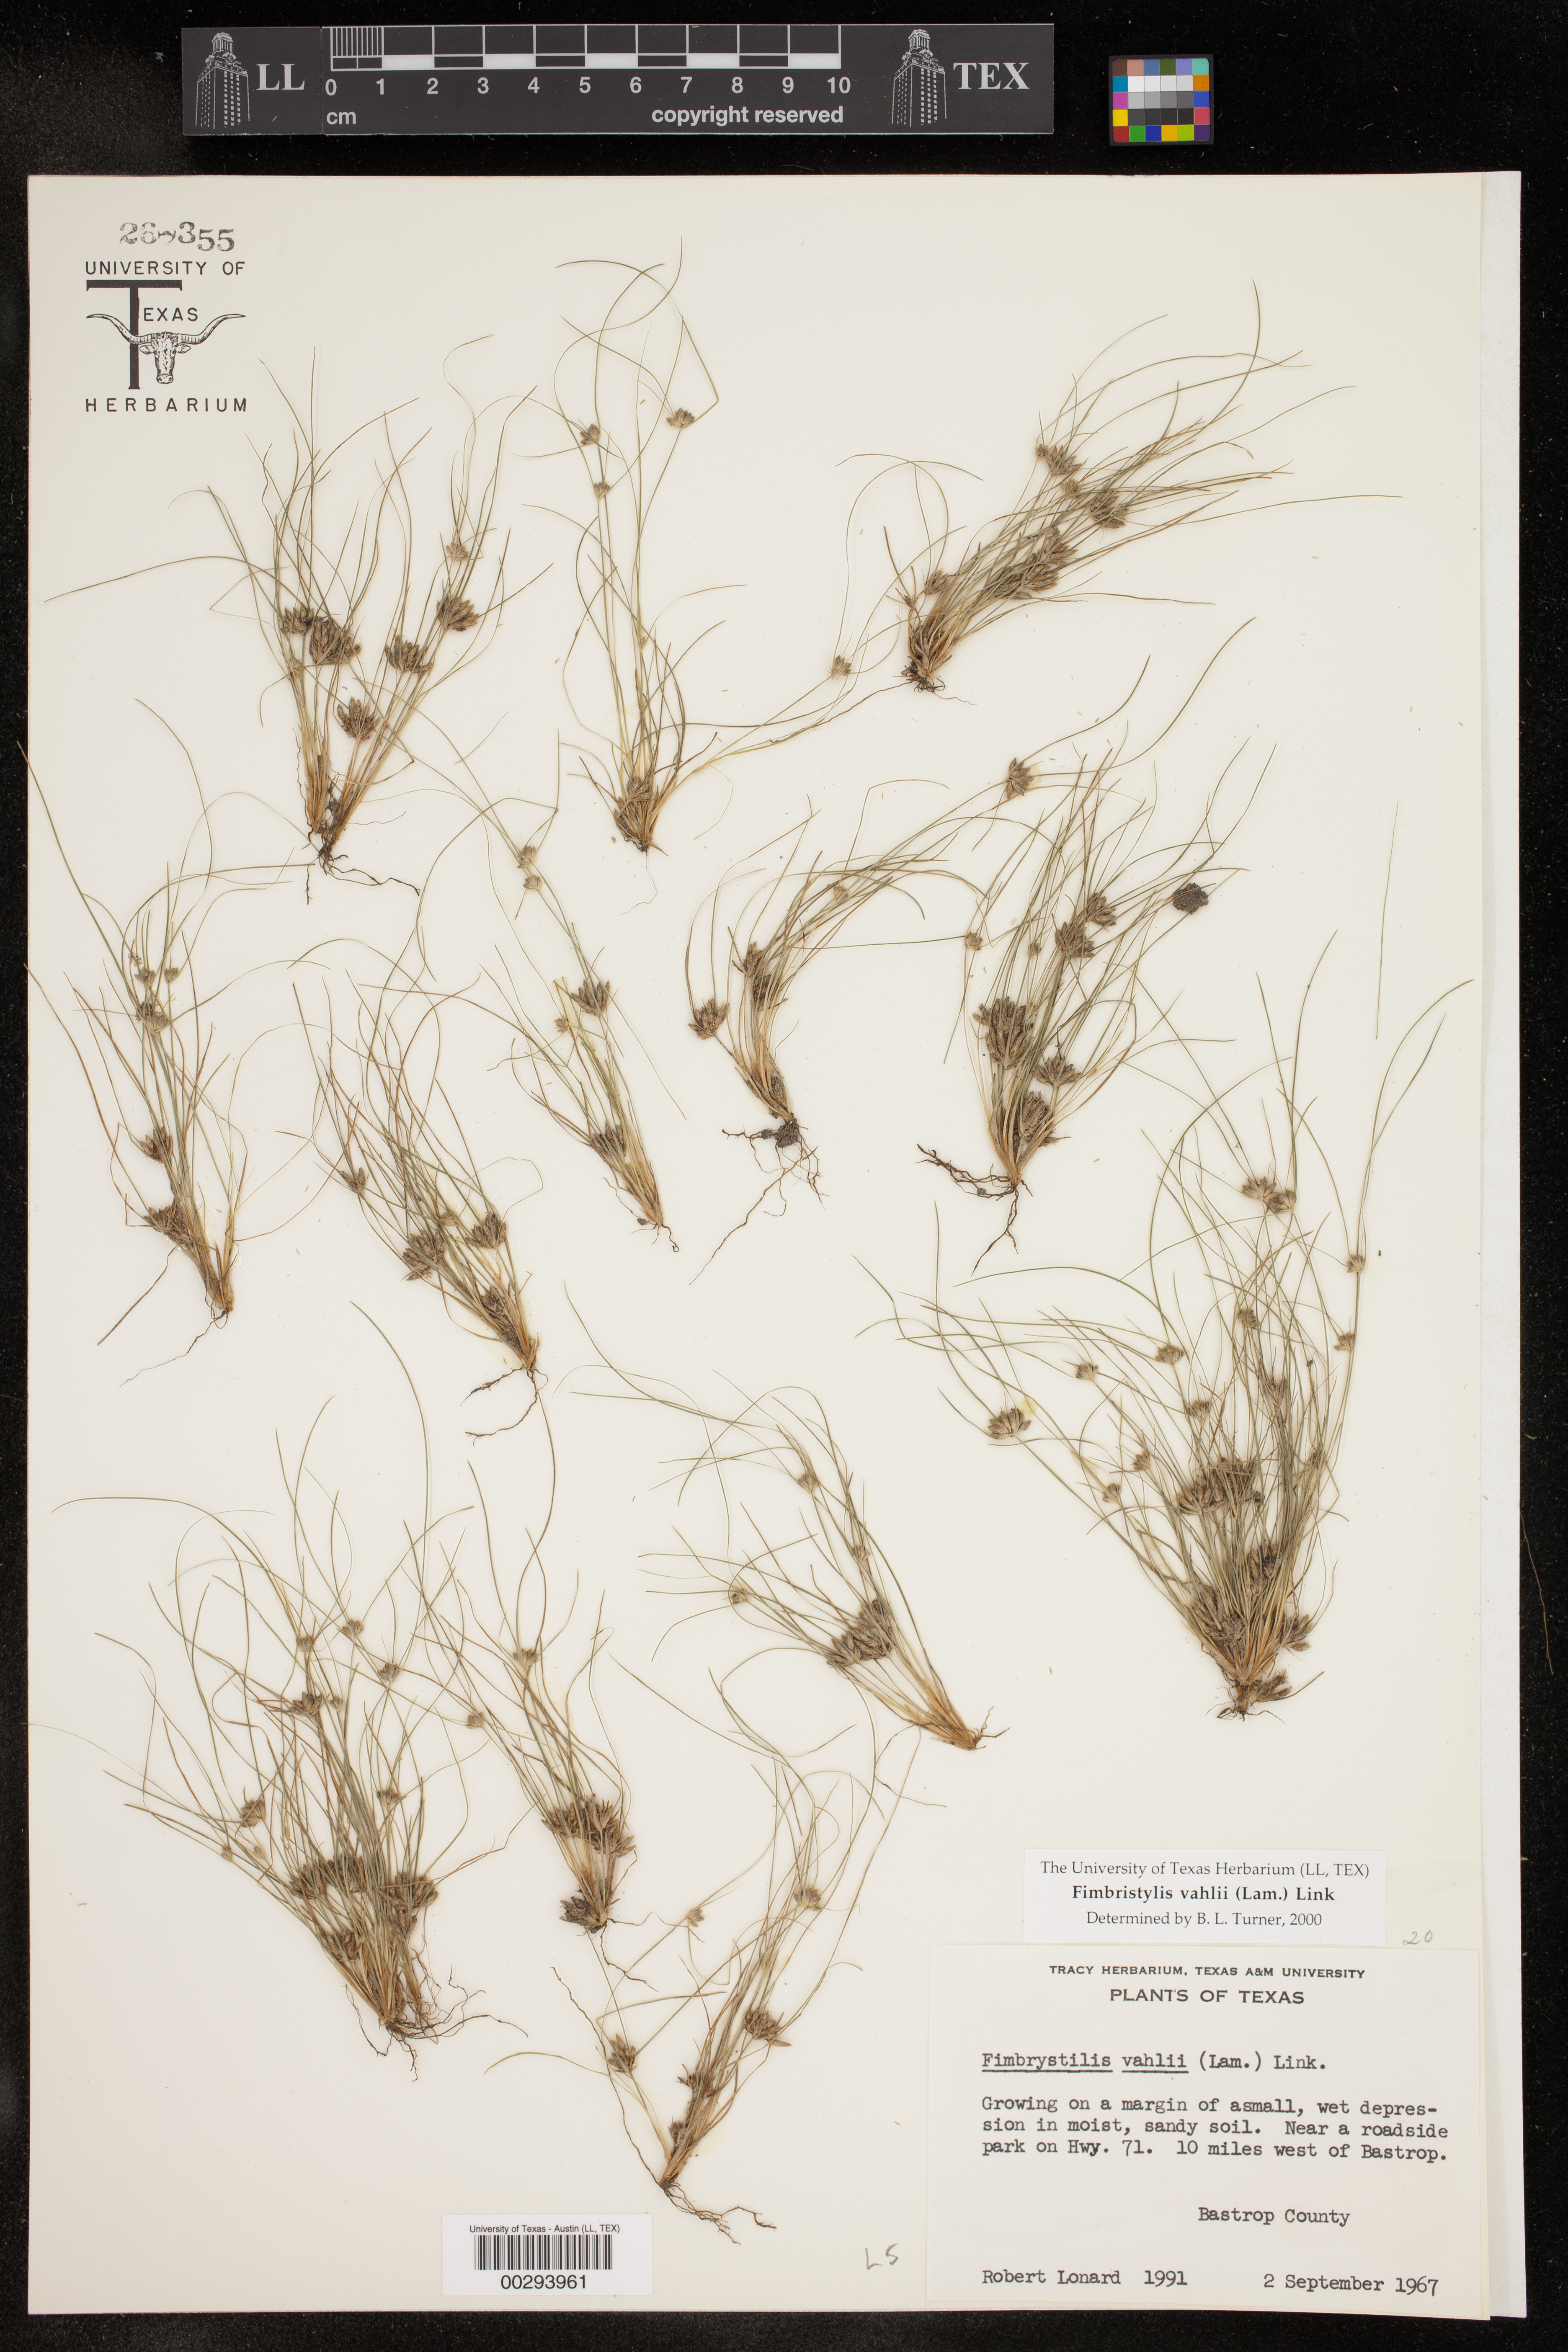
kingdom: Plantae
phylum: Tracheophyta
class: Liliopsida
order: Poales
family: Cyperaceae
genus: Fimbristylis
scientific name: Fimbristylis vahlii
